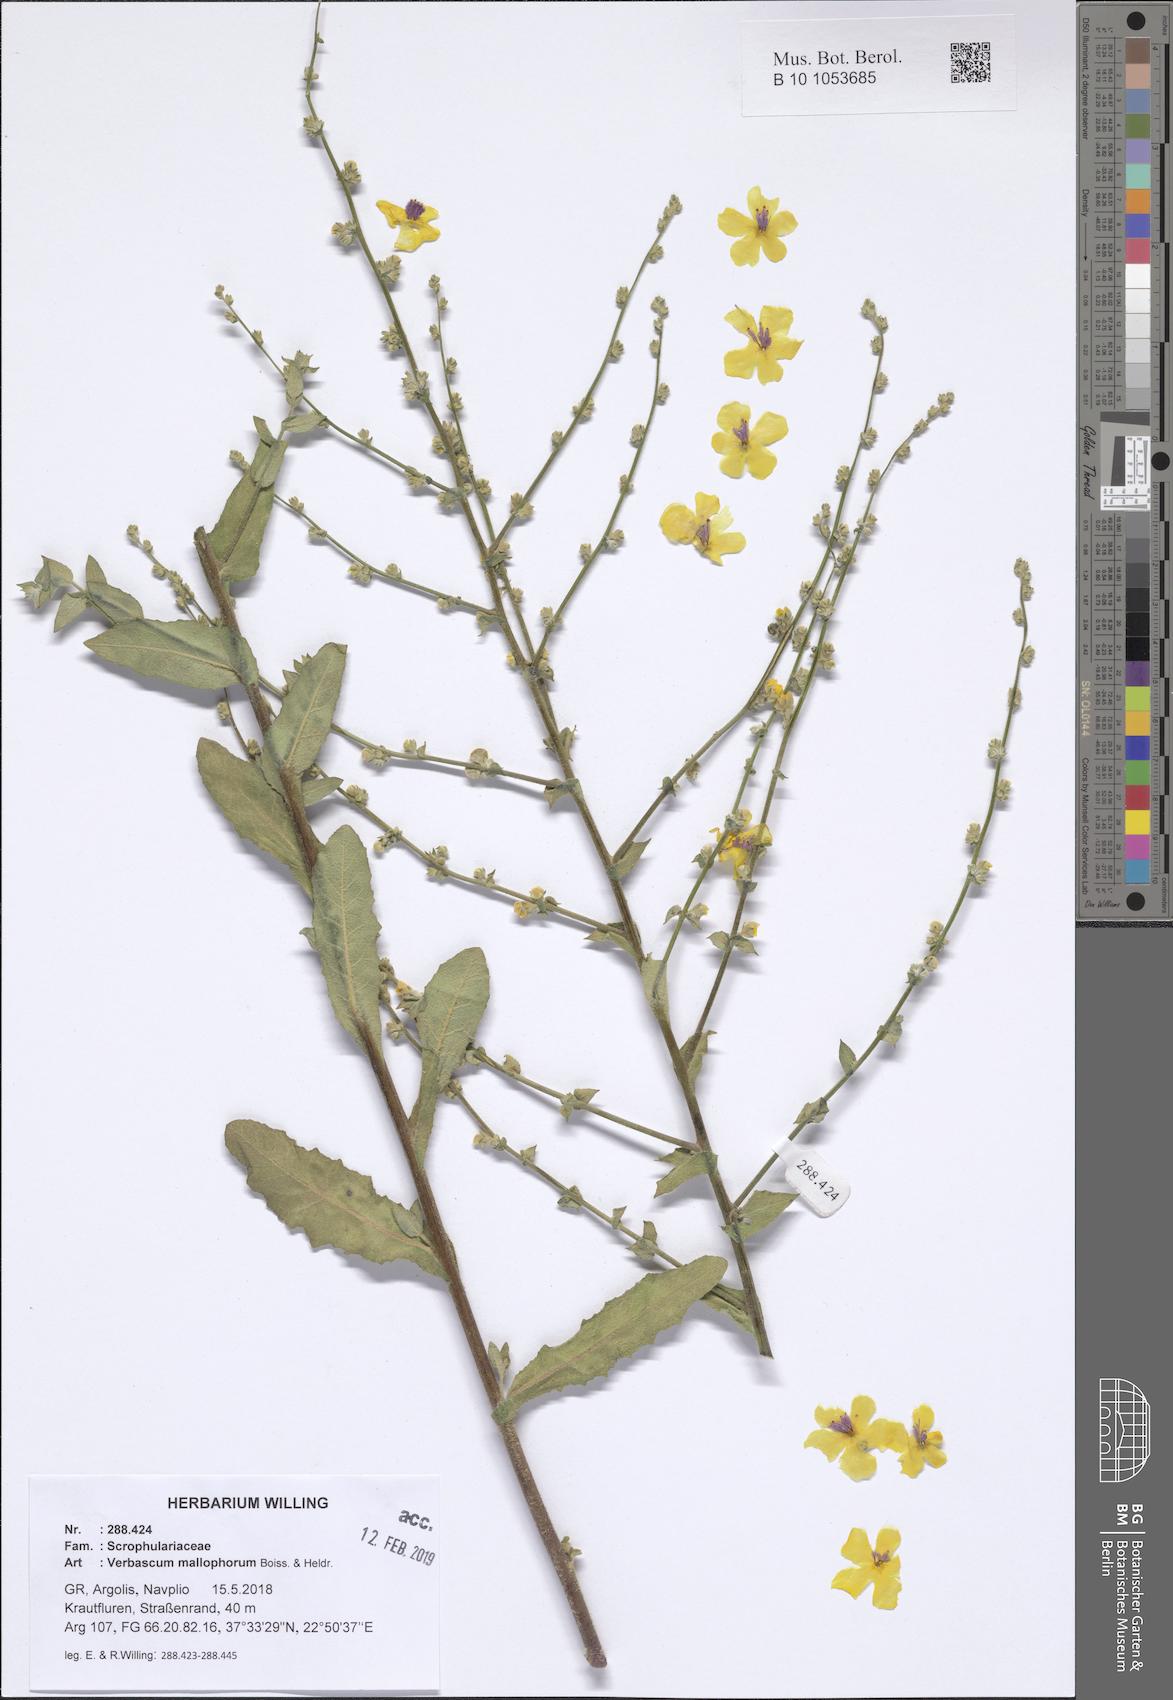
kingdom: Plantae
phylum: Tracheophyta
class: Magnoliopsida
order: Lamiales
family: Scrophulariaceae
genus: Verbascum
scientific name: Verbascum mallophorum
